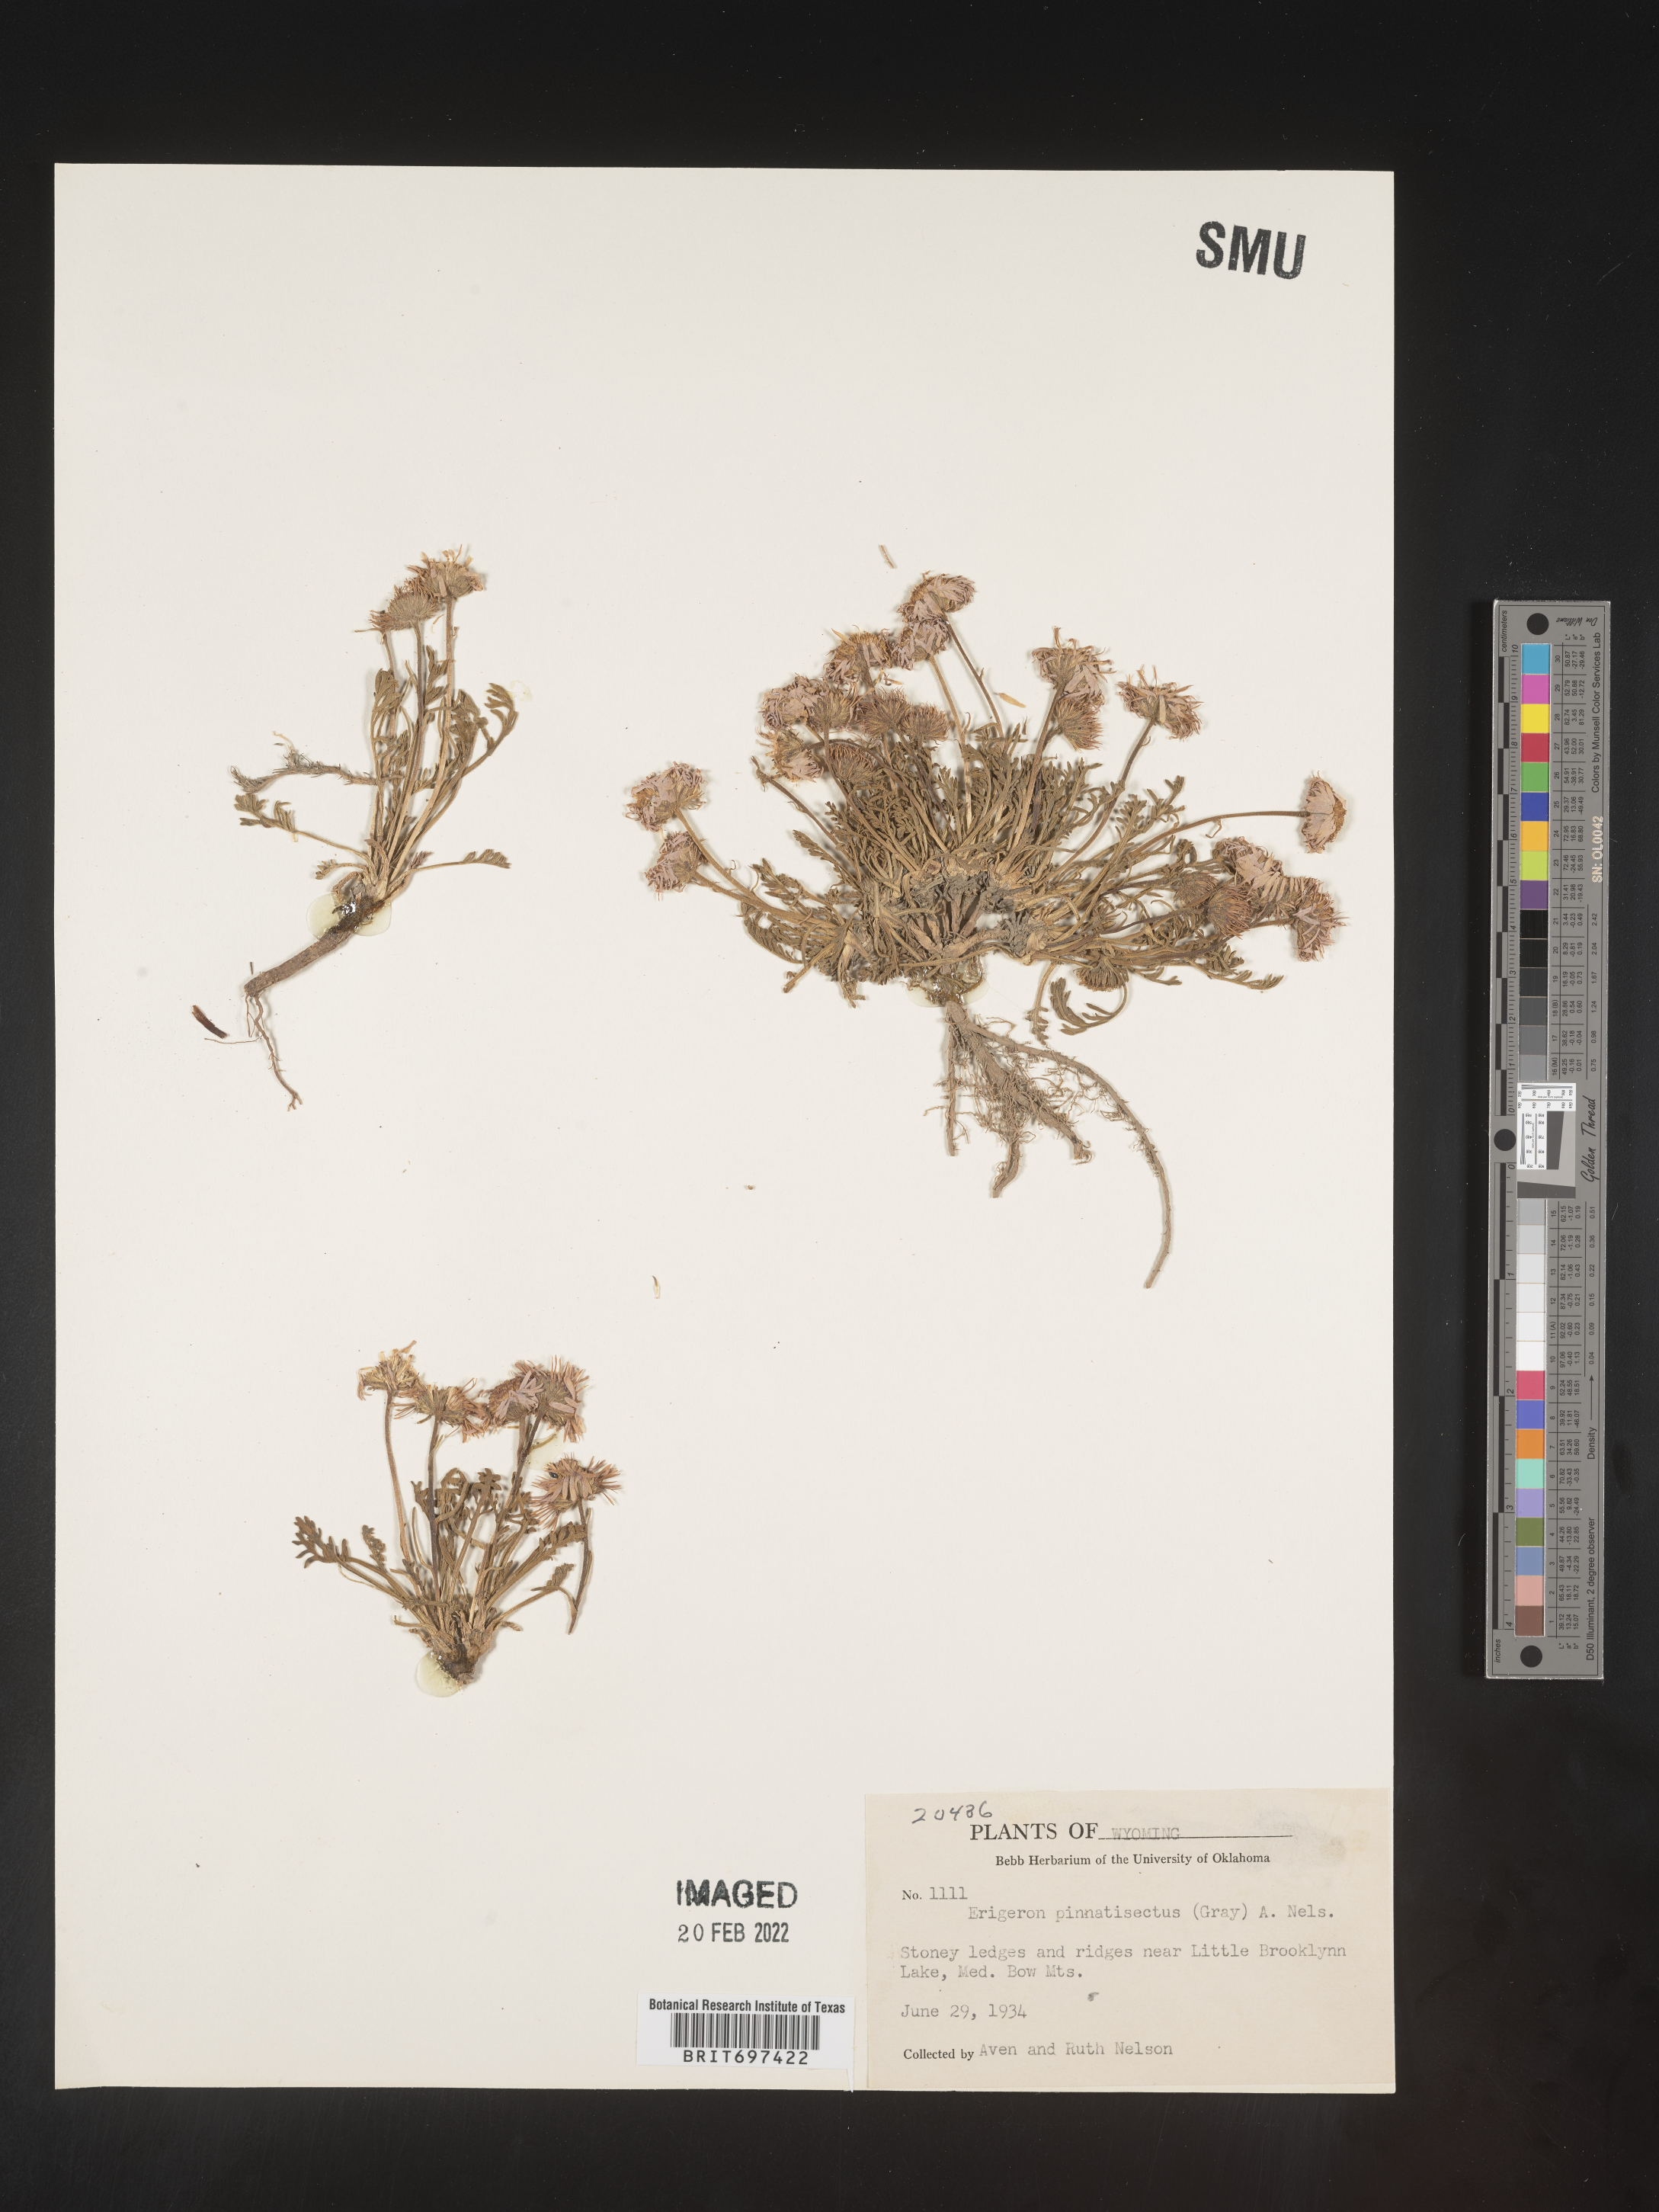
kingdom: Plantae
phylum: Tracheophyta
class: Magnoliopsida
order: Asterales
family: Asteraceae
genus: Erigeron
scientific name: Erigeron pinnatisectus
